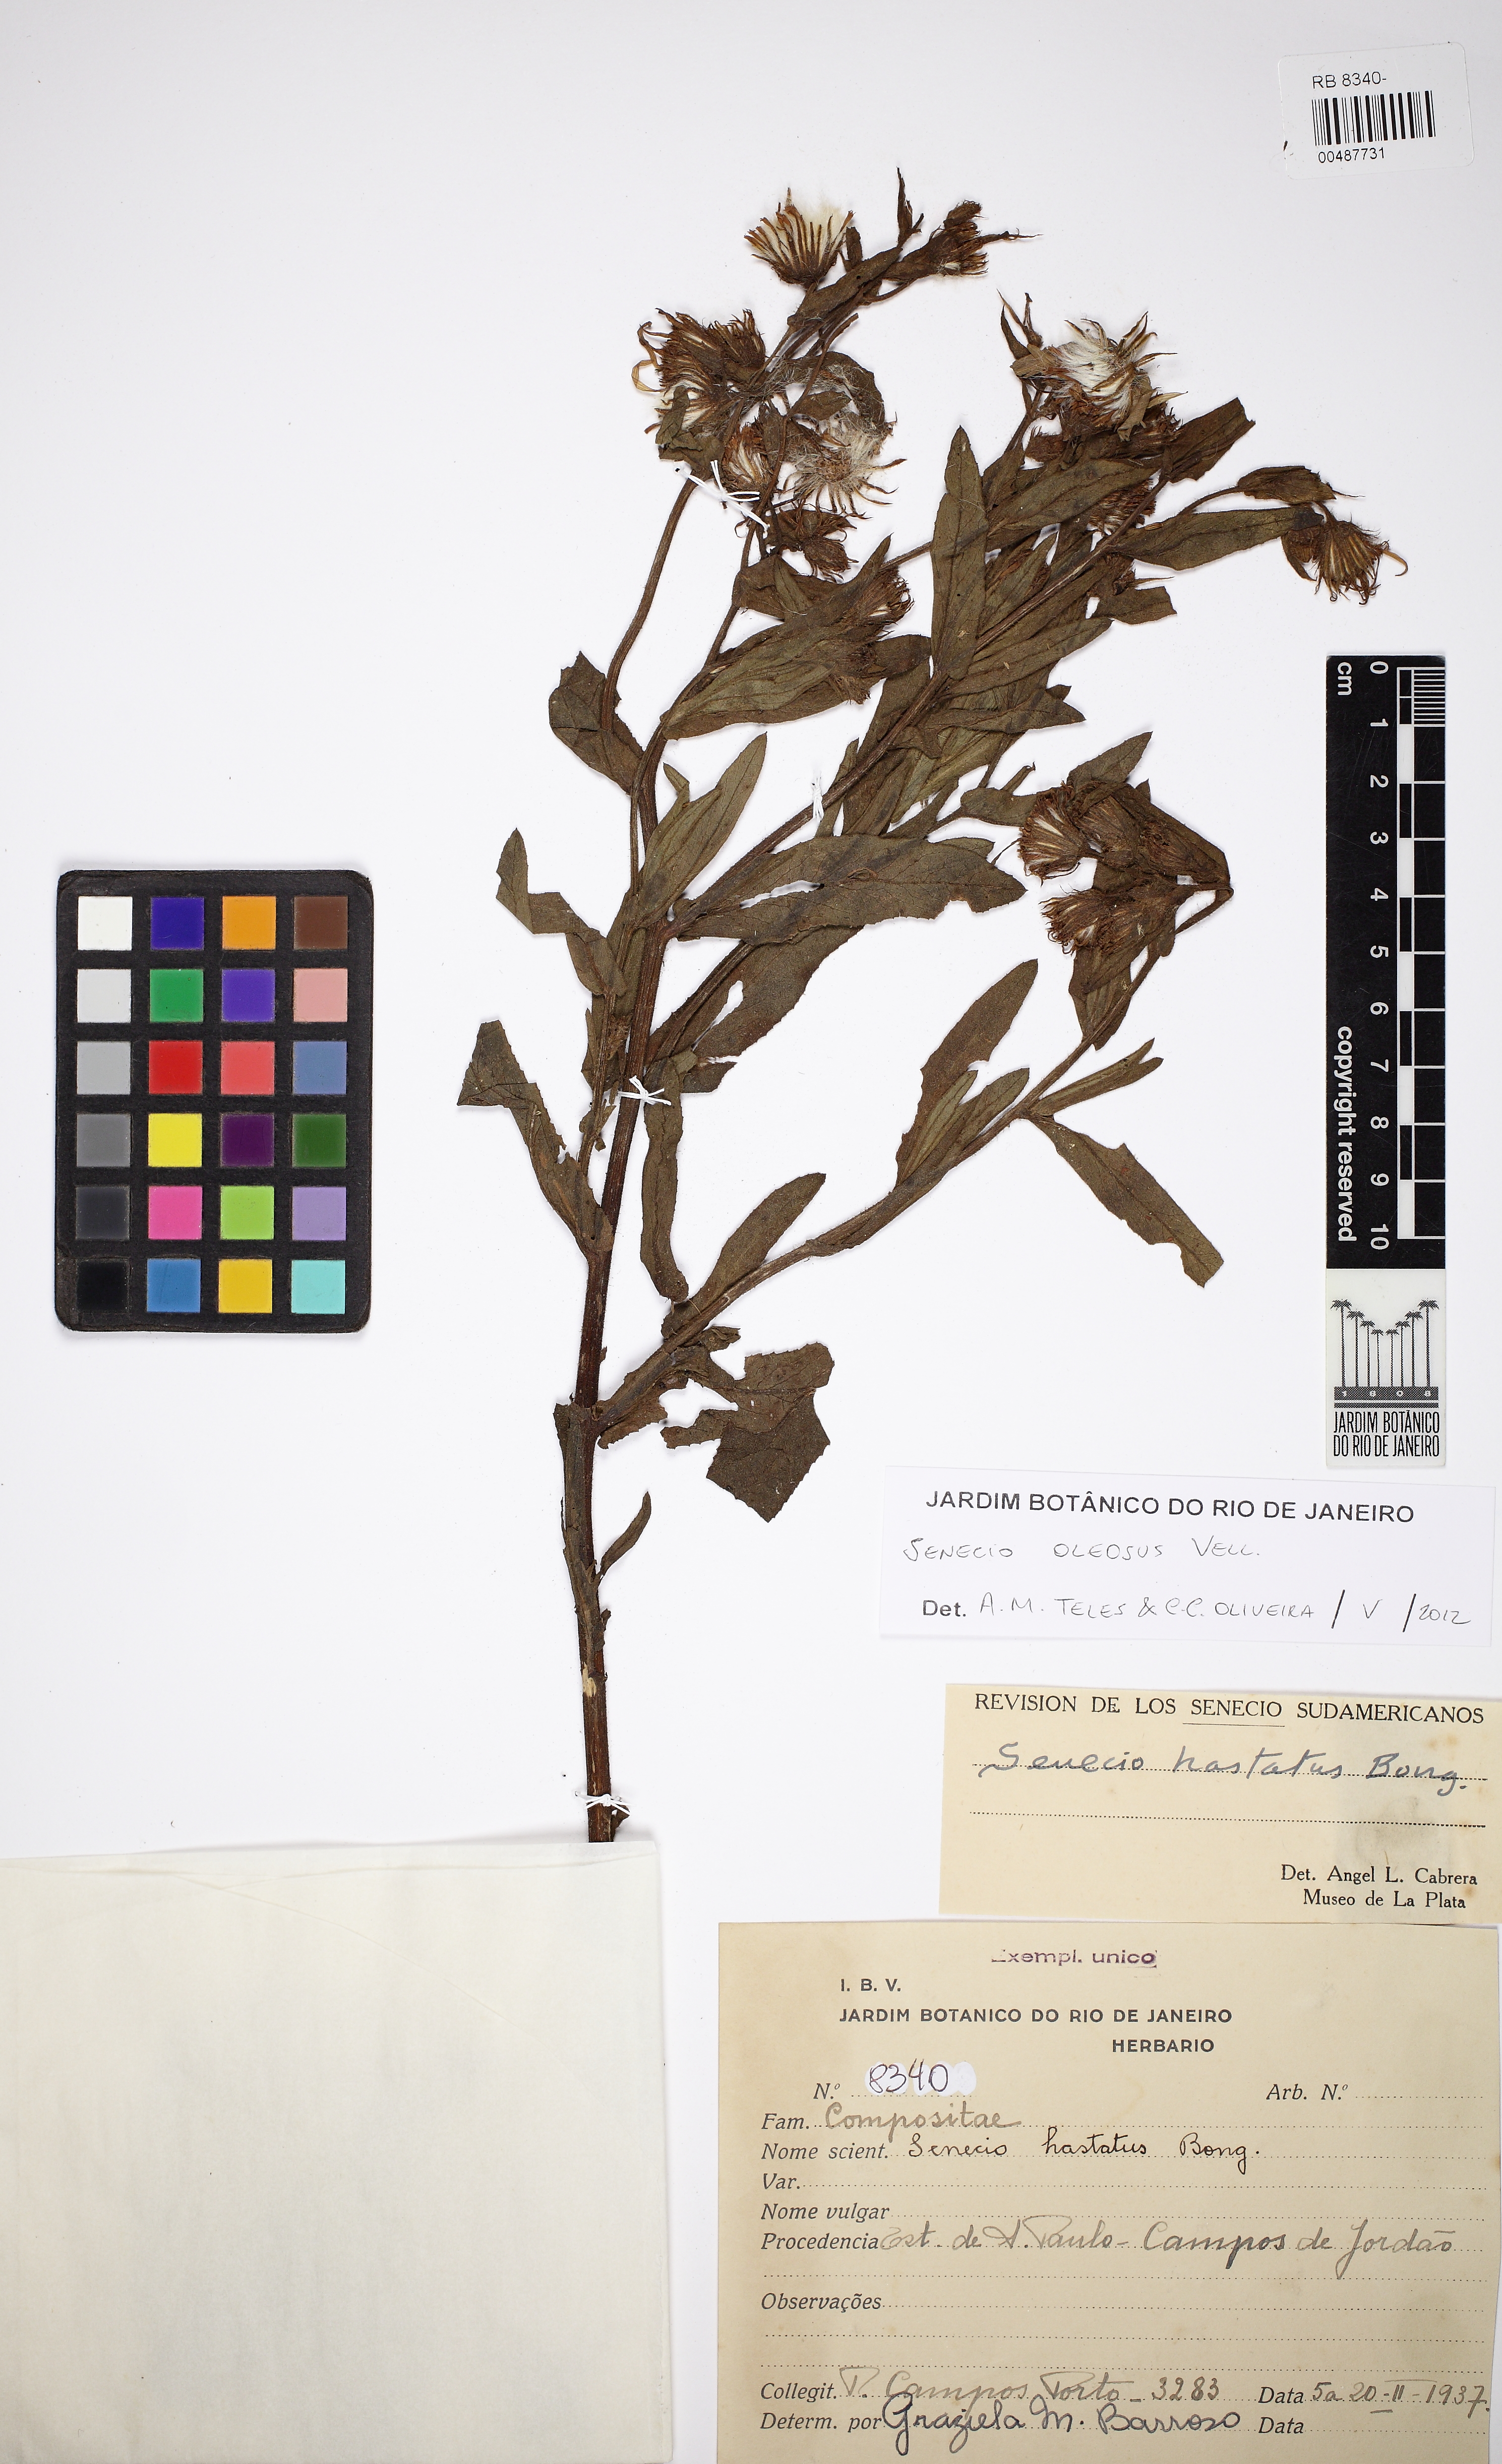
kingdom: Plantae
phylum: Tracheophyta
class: Magnoliopsida
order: Asterales
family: Asteraceae
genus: Senecio
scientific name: Senecio oleosus
